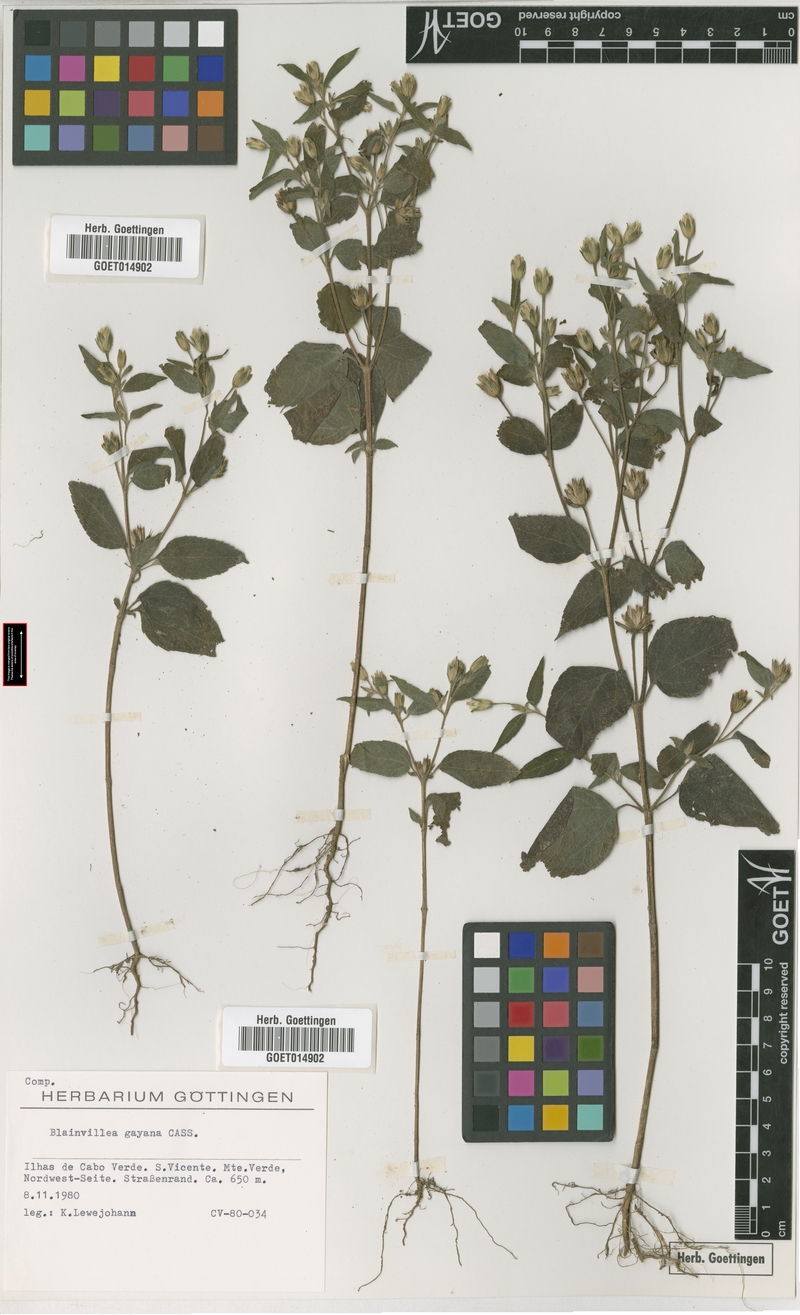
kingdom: Plantae
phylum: Tracheophyta
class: Magnoliopsida
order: Asterales
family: Asteraceae
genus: Blainvillea
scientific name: Blainvillea gayana
